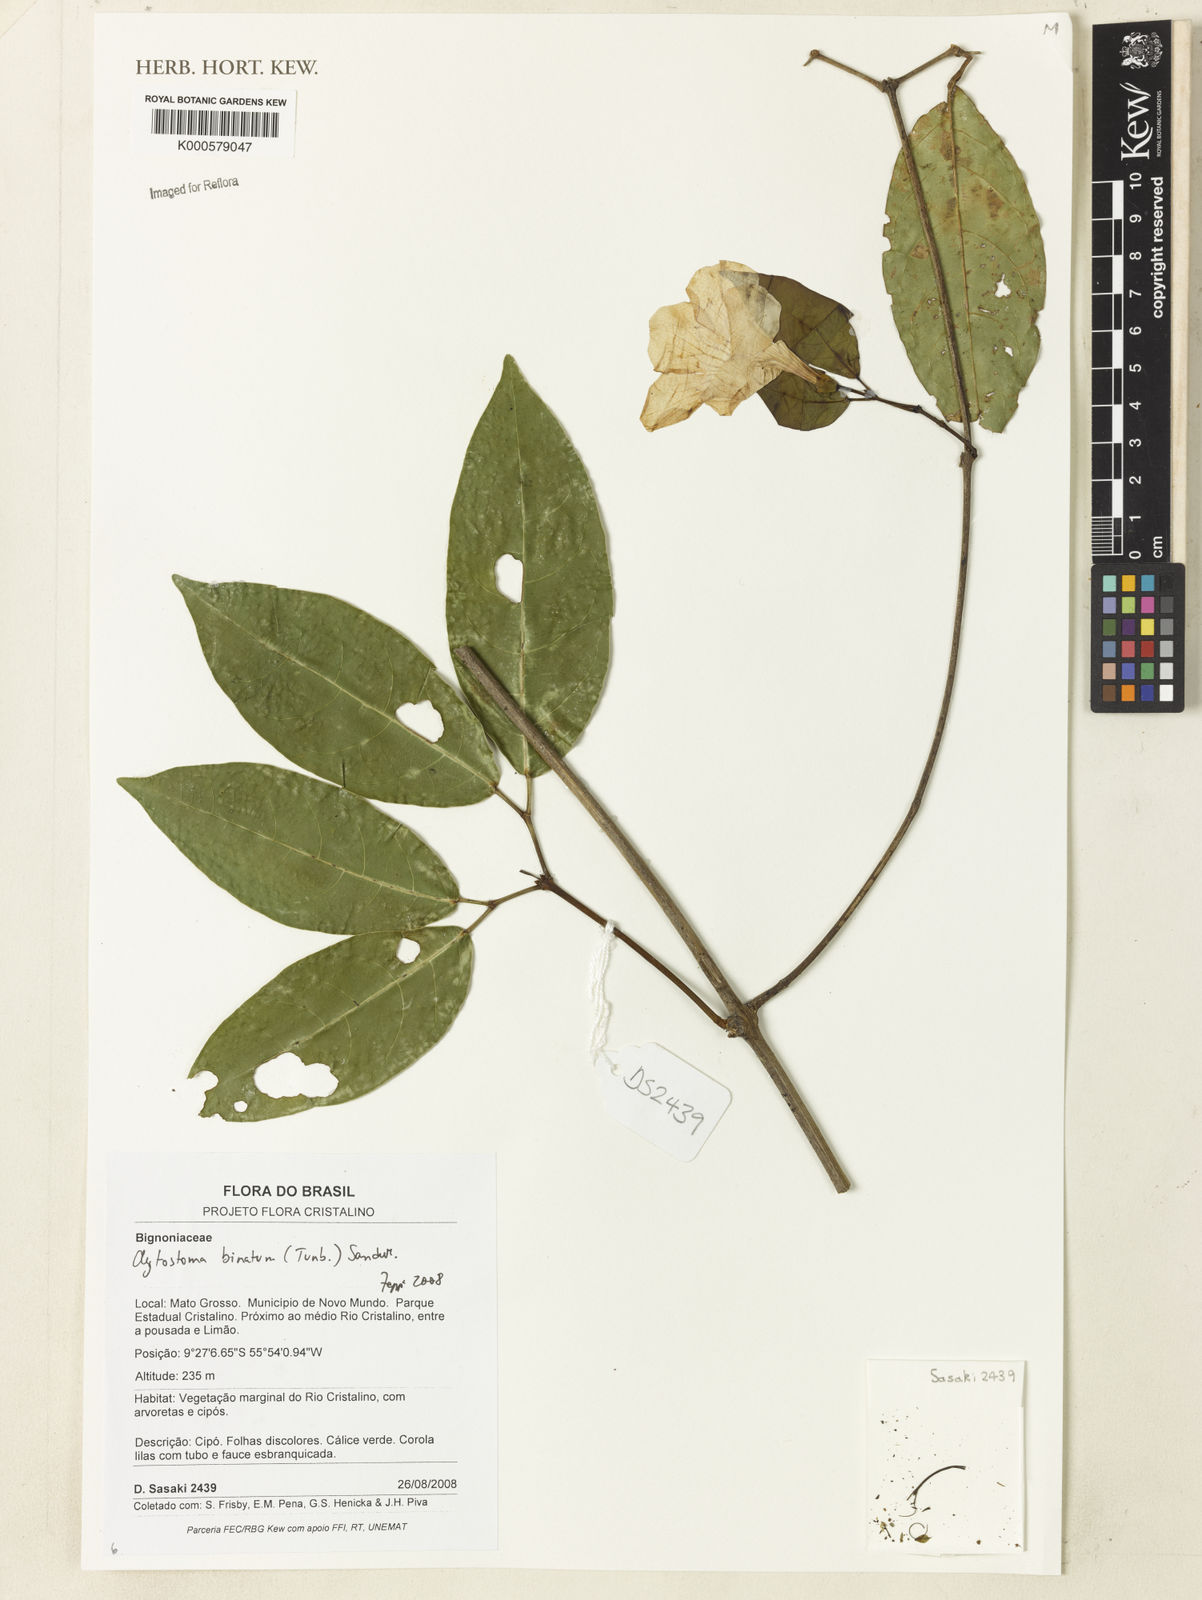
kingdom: Plantae
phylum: Tracheophyta
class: Magnoliopsida
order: Lamiales
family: Bignoniaceae
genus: Bignonia
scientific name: Bignonia binata
